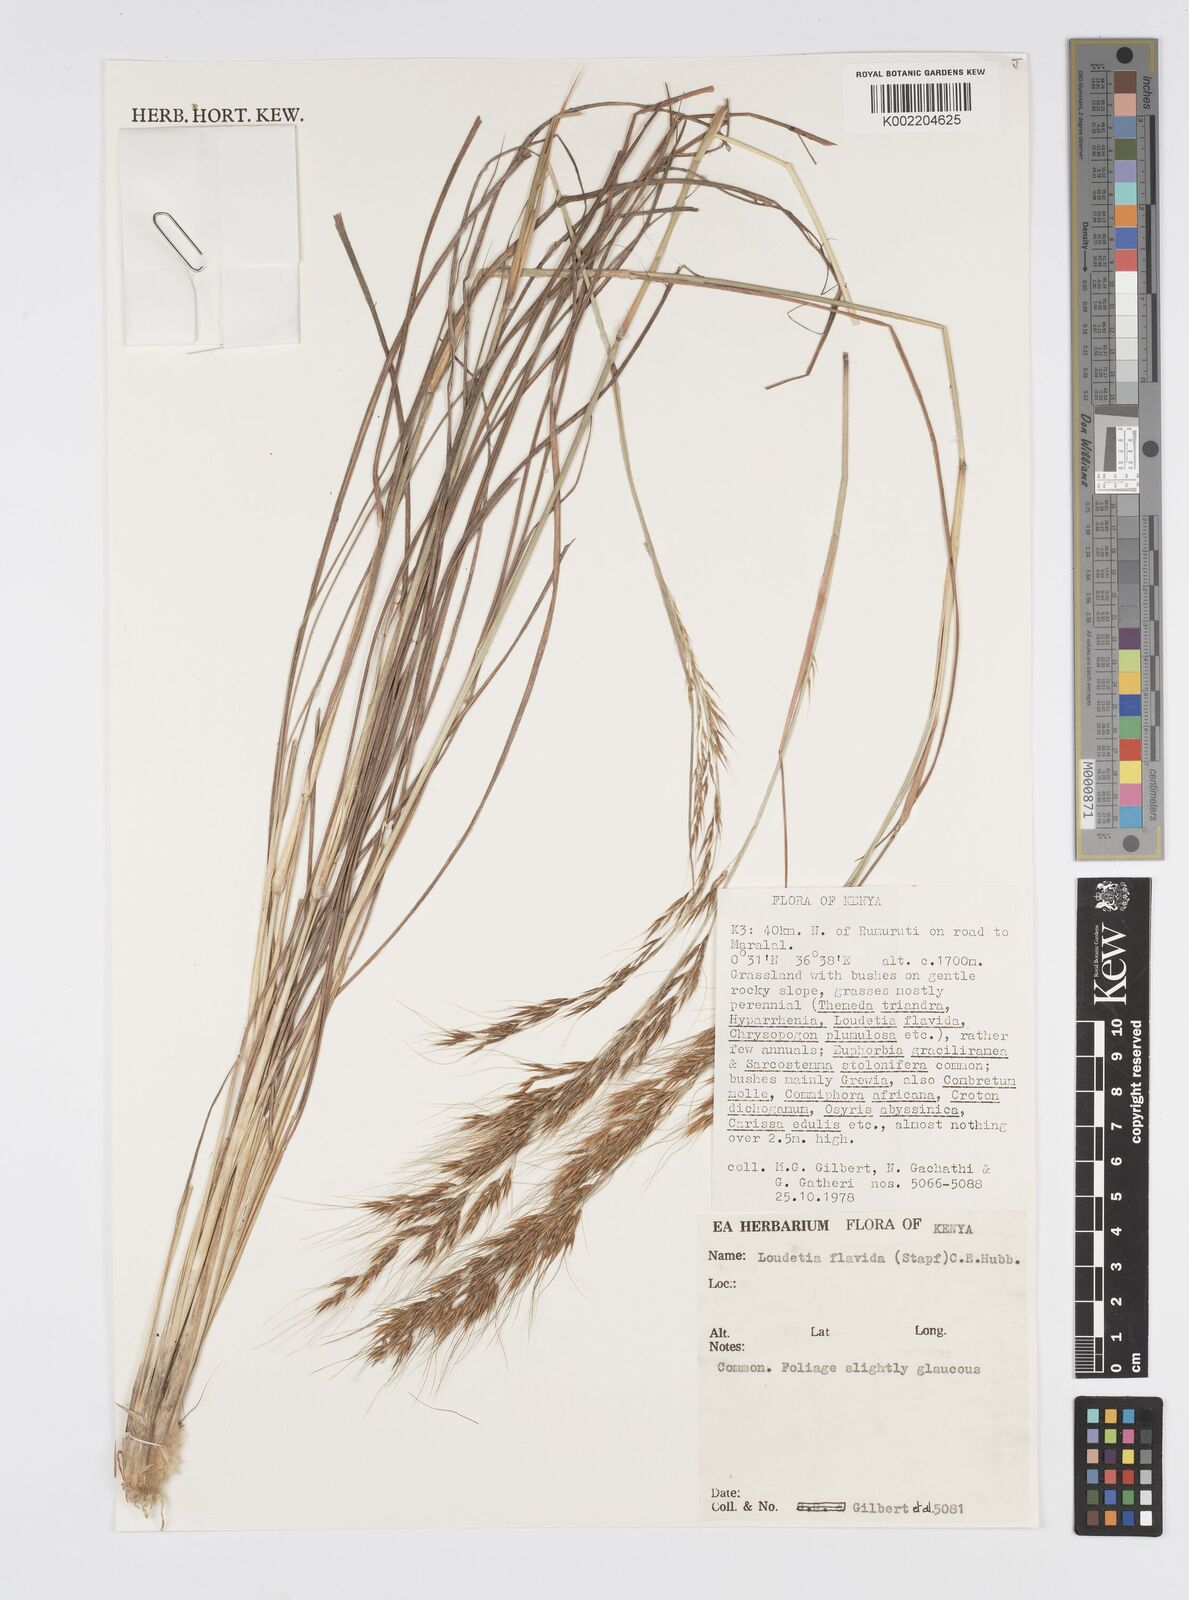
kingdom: Plantae
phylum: Tracheophyta
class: Liliopsida
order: Poales
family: Poaceae
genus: Loudetia
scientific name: Loudetia flavida
